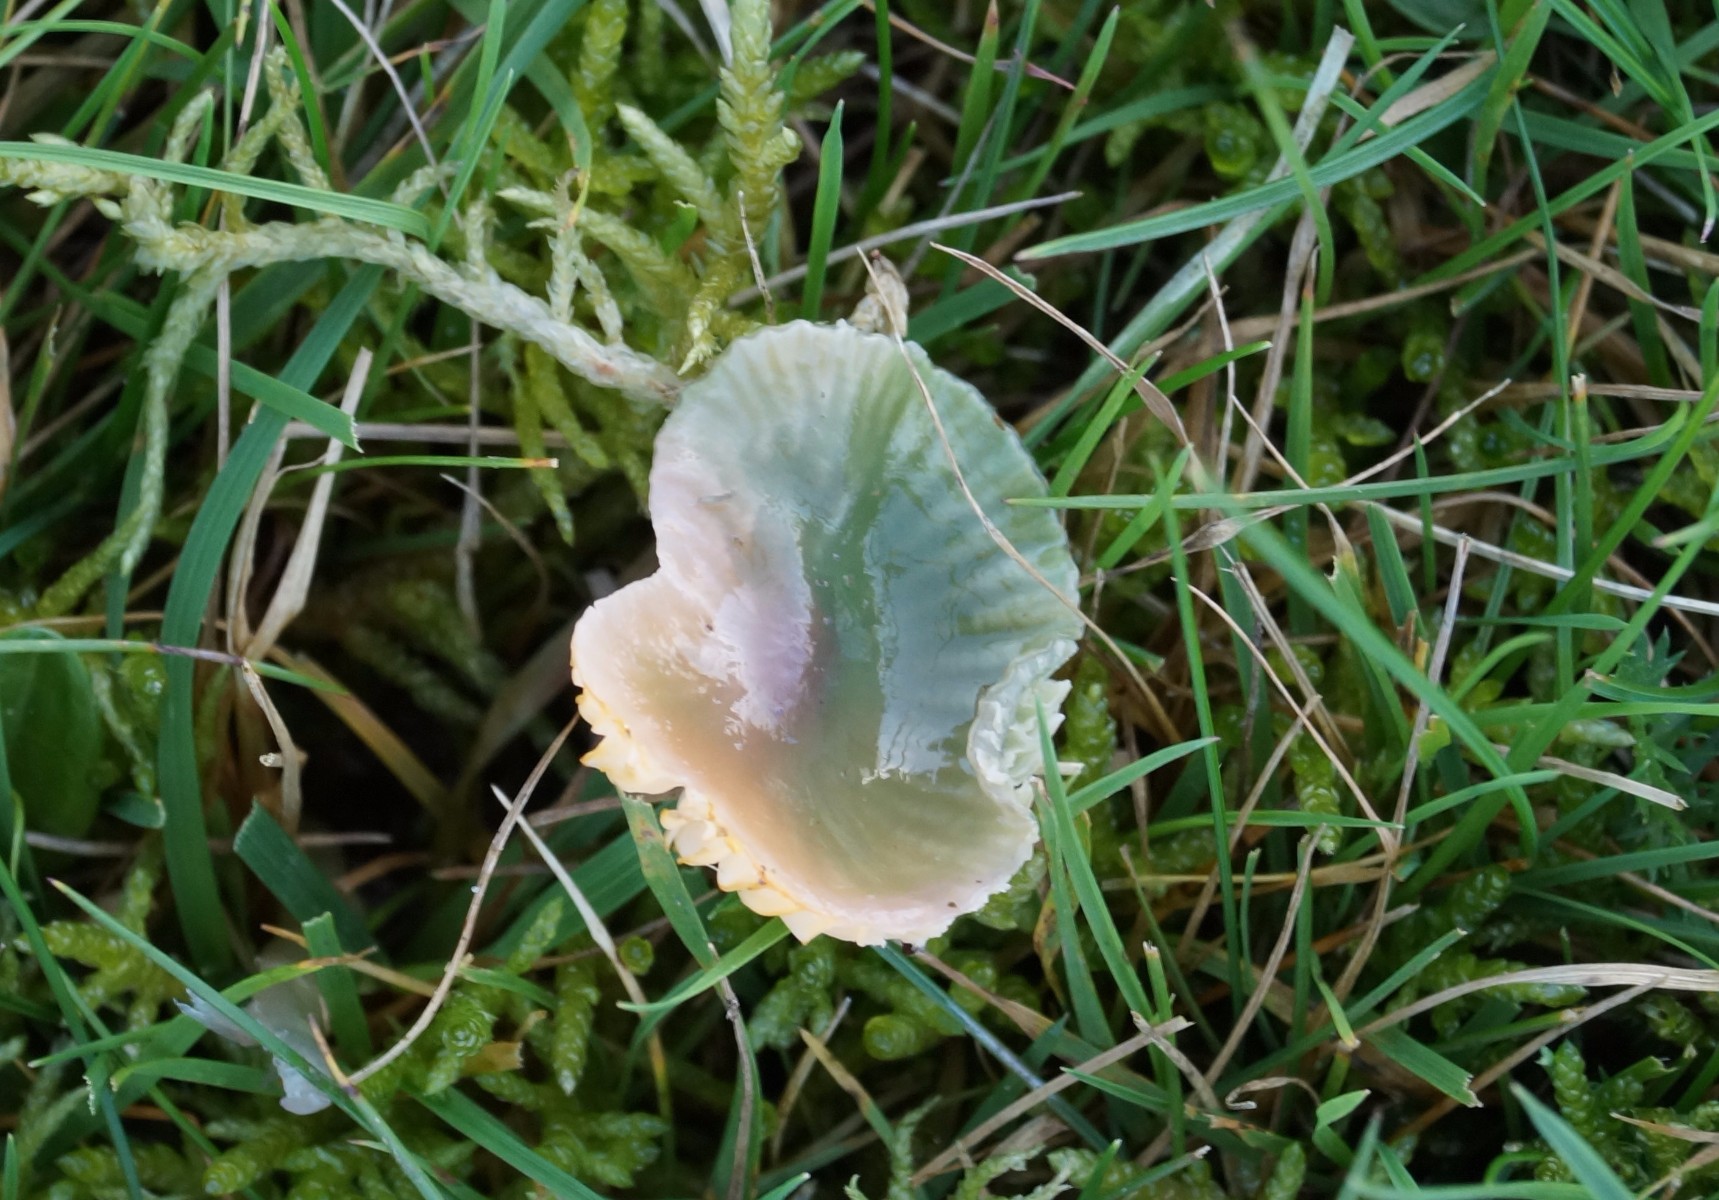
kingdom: Fungi
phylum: Basidiomycota
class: Agaricomycetes
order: Agaricales
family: Hygrophoraceae
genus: Gliophorus
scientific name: Gliophorus psittacinus
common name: papegøje-vokshat
